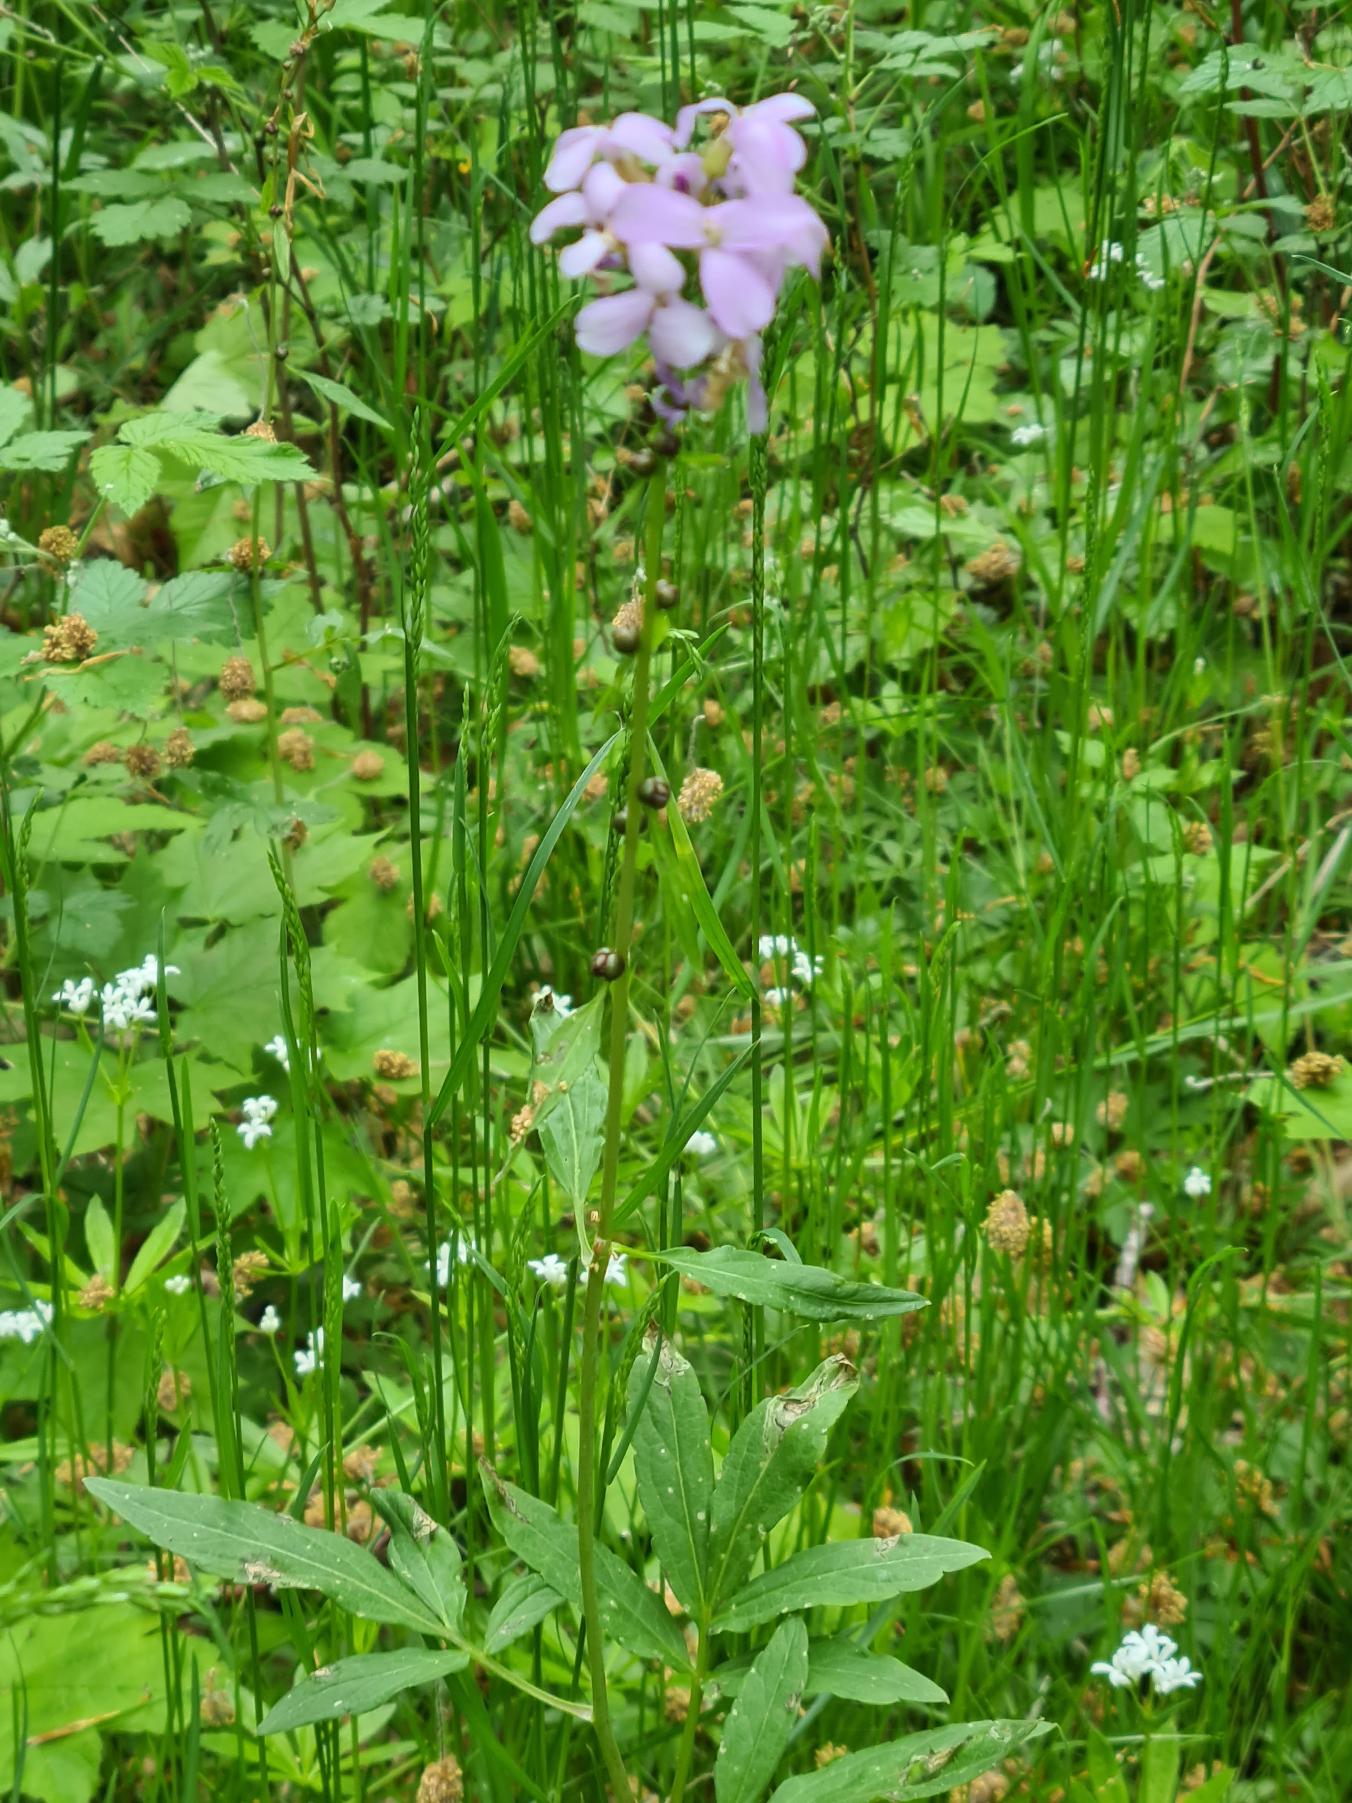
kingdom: Plantae
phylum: Tracheophyta
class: Magnoliopsida
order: Brassicales
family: Brassicaceae
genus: Cardamine
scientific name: Cardamine bulbifera
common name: Tandrod
